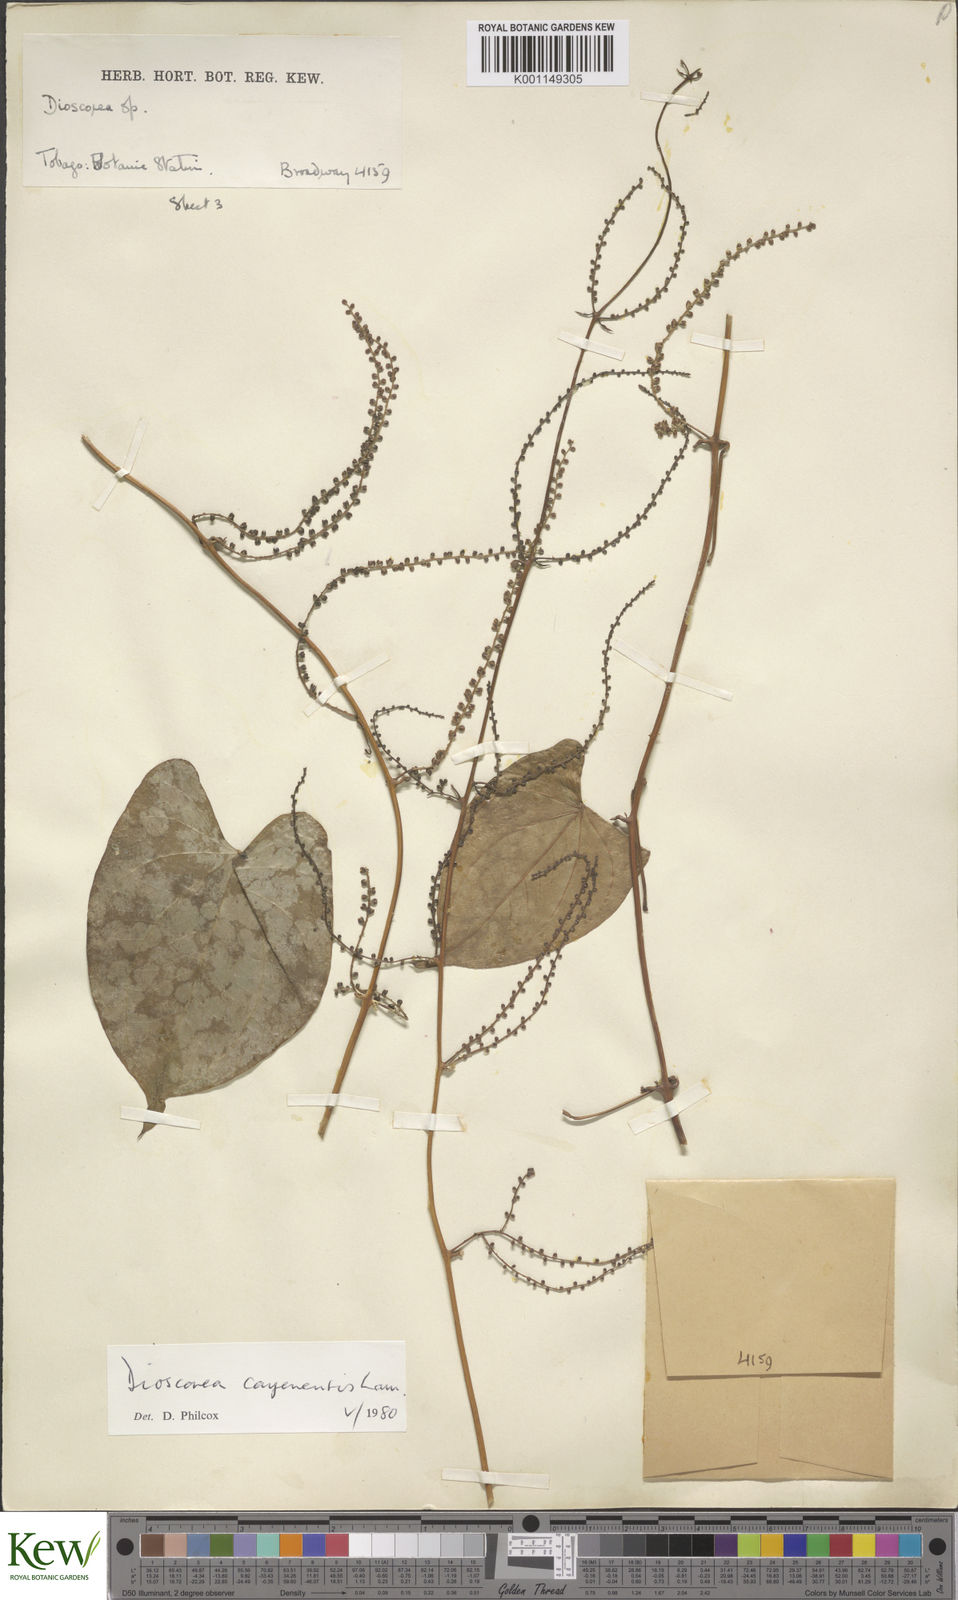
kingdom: Plantae
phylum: Tracheophyta
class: Liliopsida
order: Dioscoreales
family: Dioscoreaceae
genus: Dioscorea
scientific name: Dioscorea cayenensis
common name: Attoto yam
